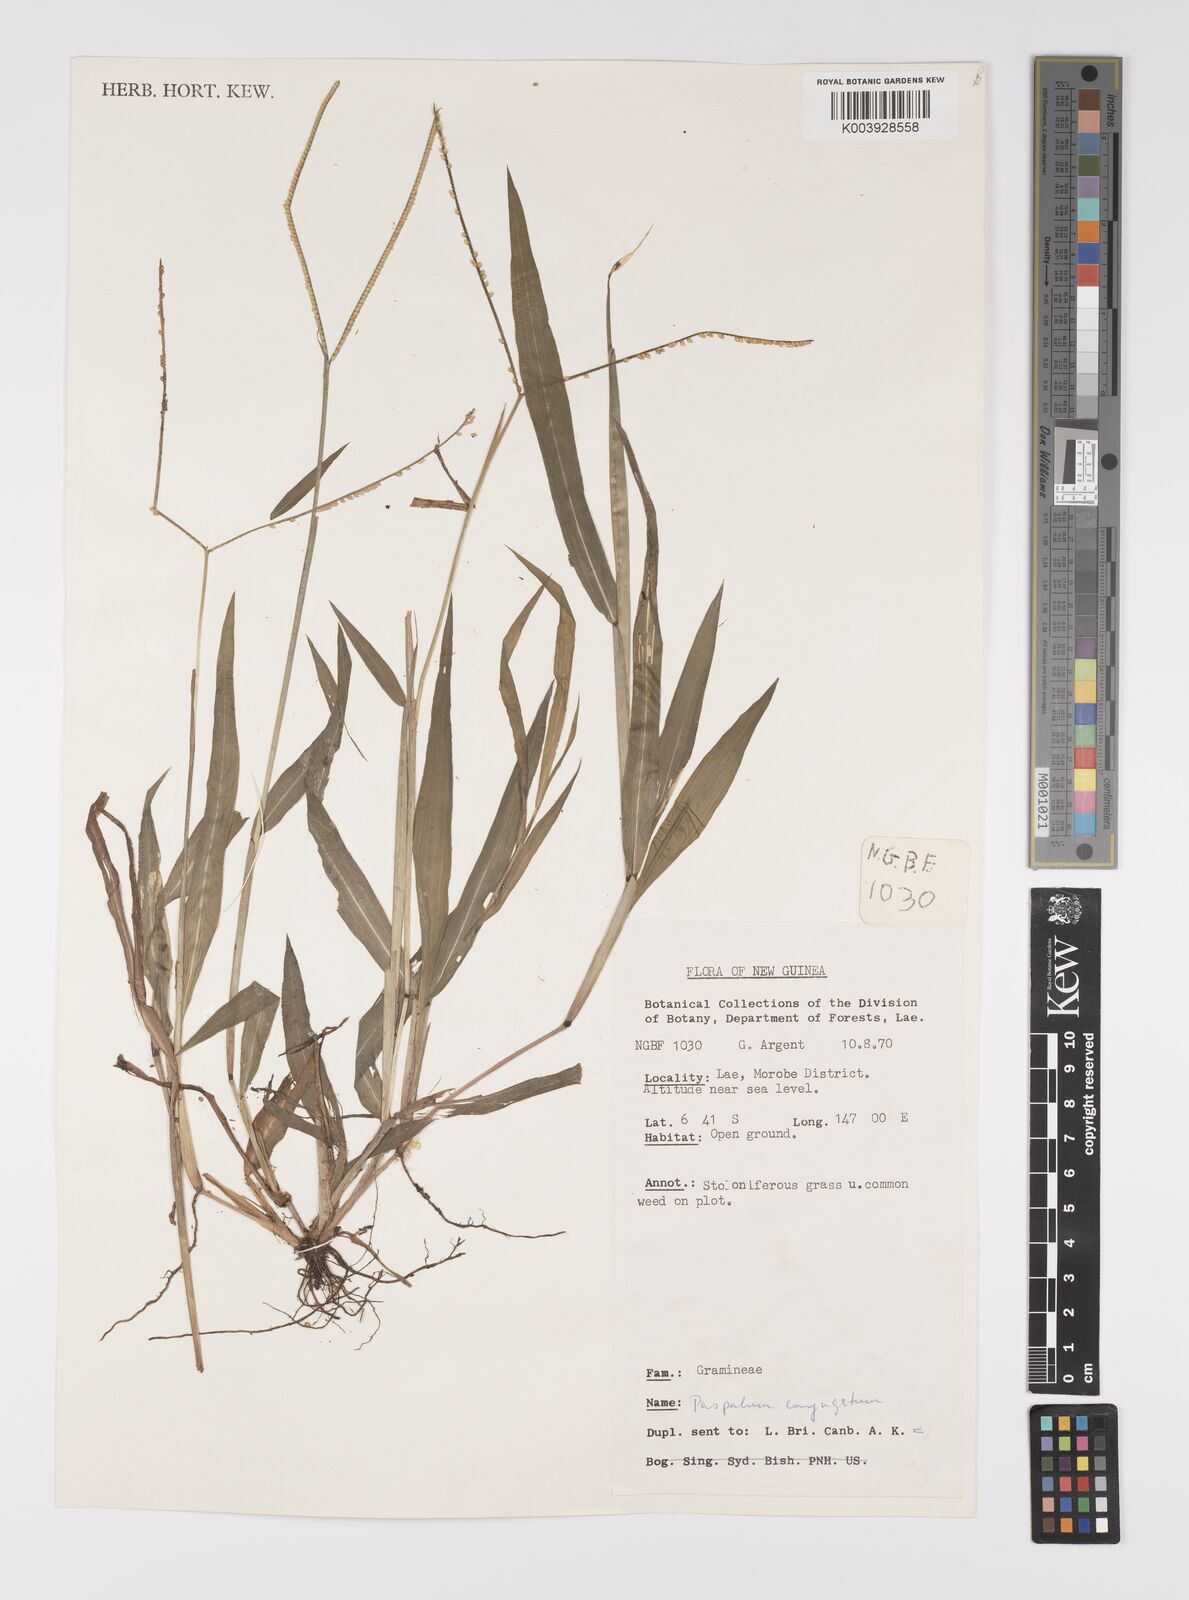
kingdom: Plantae
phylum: Tracheophyta
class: Liliopsida
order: Poales
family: Poaceae
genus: Paspalum
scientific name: Paspalum conjugatum
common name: Hilograss
